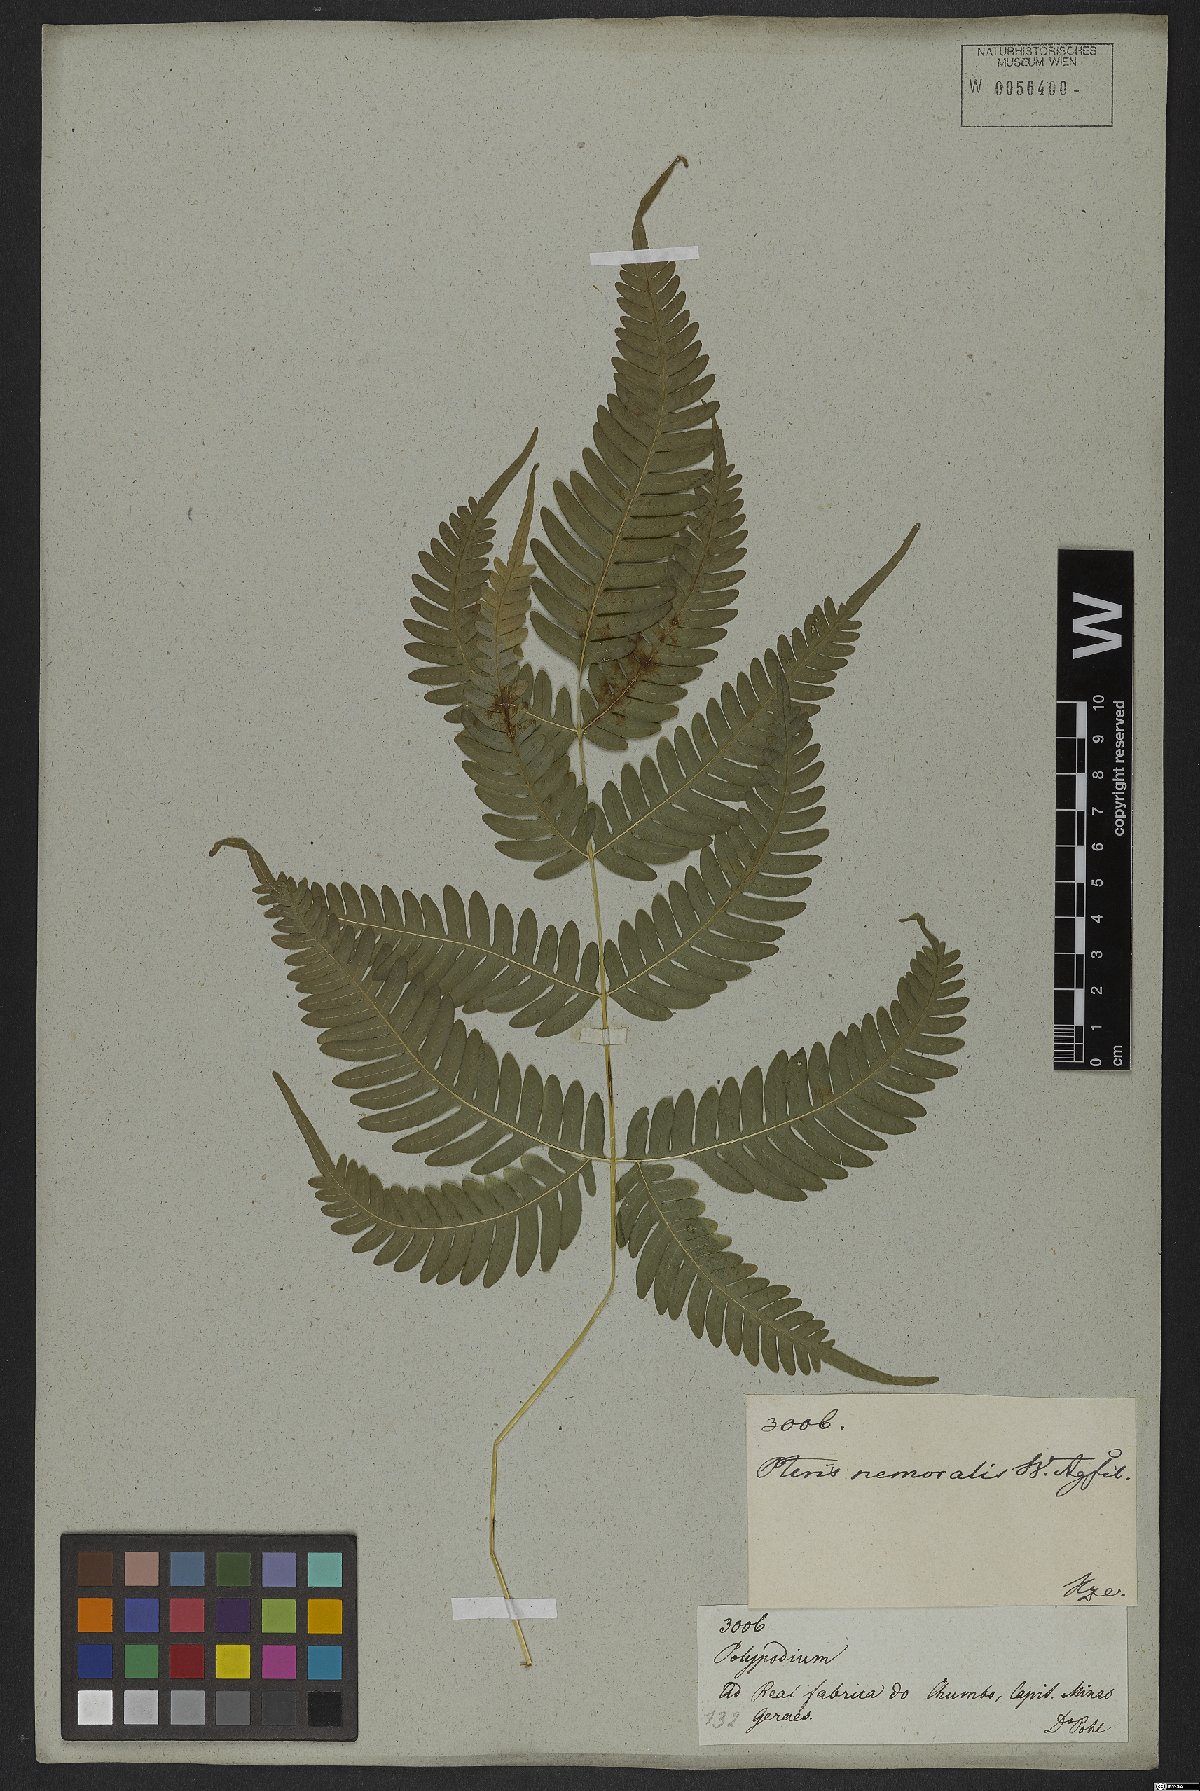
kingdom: Plantae
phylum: Tracheophyta
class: Polypodiopsida
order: Polypodiales
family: Pteridaceae
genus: Pteris
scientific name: Pteris biaurita
